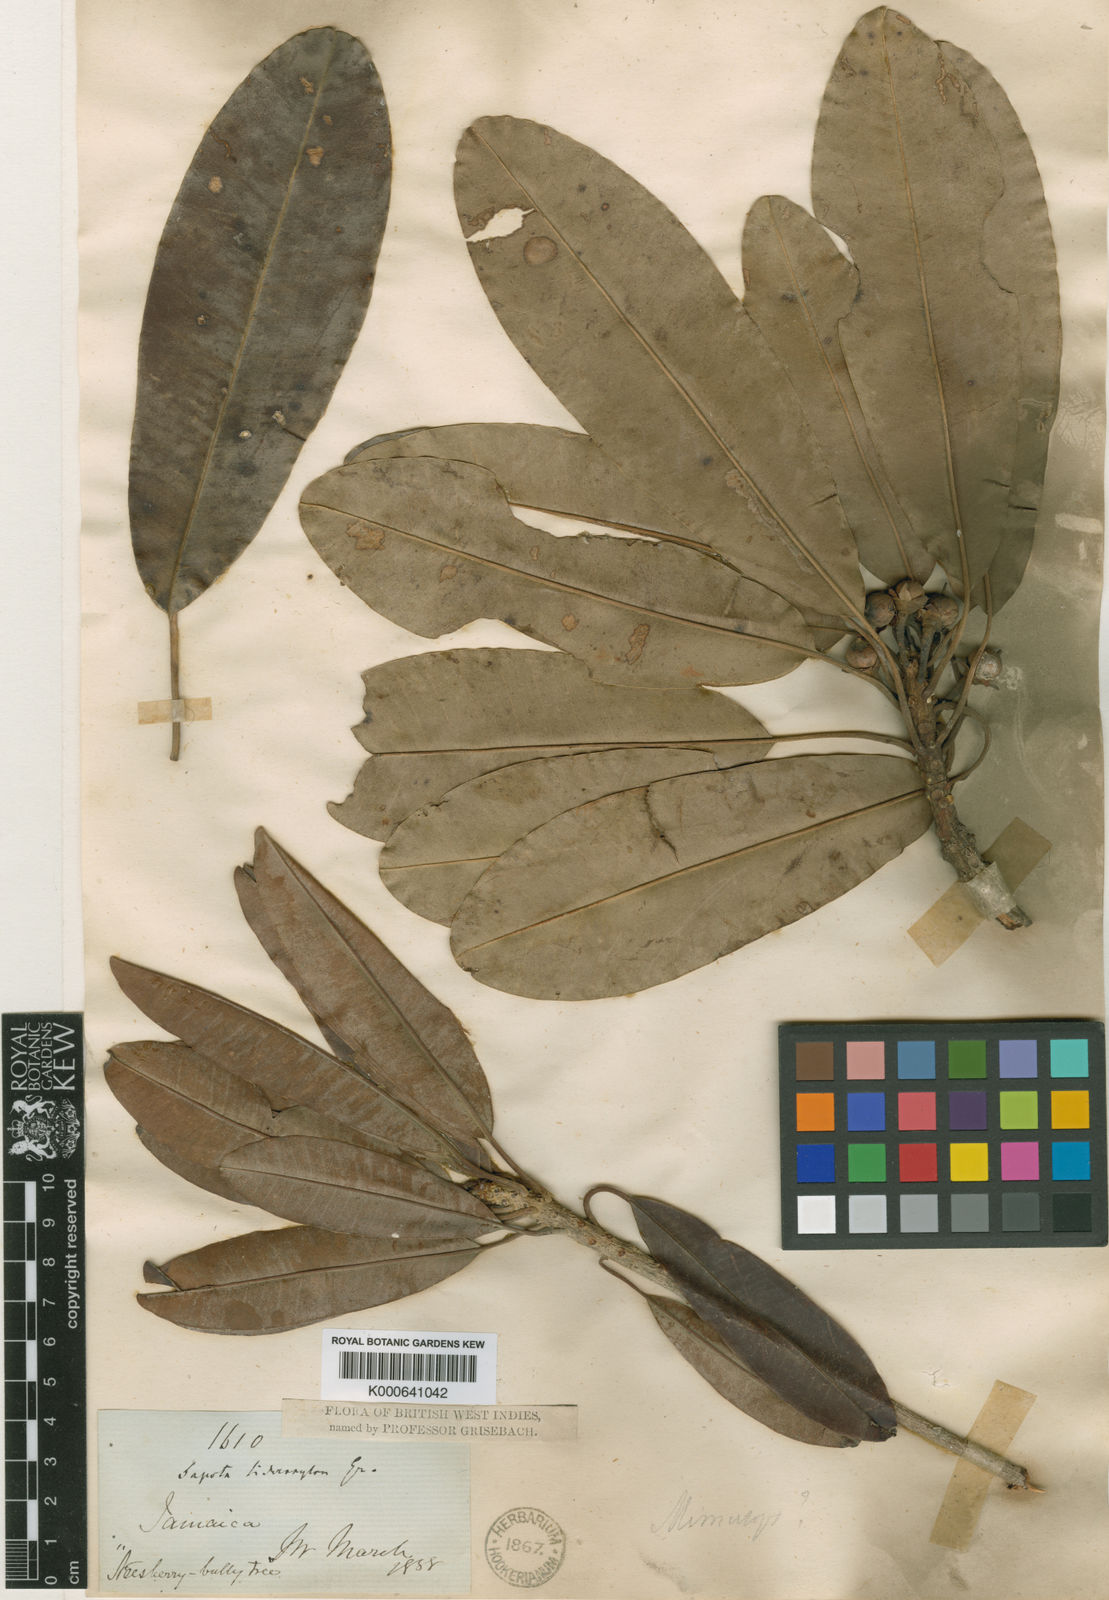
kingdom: Plantae
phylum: Tracheophyta
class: Magnoliopsida
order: Ericales
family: Sapotaceae
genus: Manilkara
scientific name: Manilkara jaimiqui
